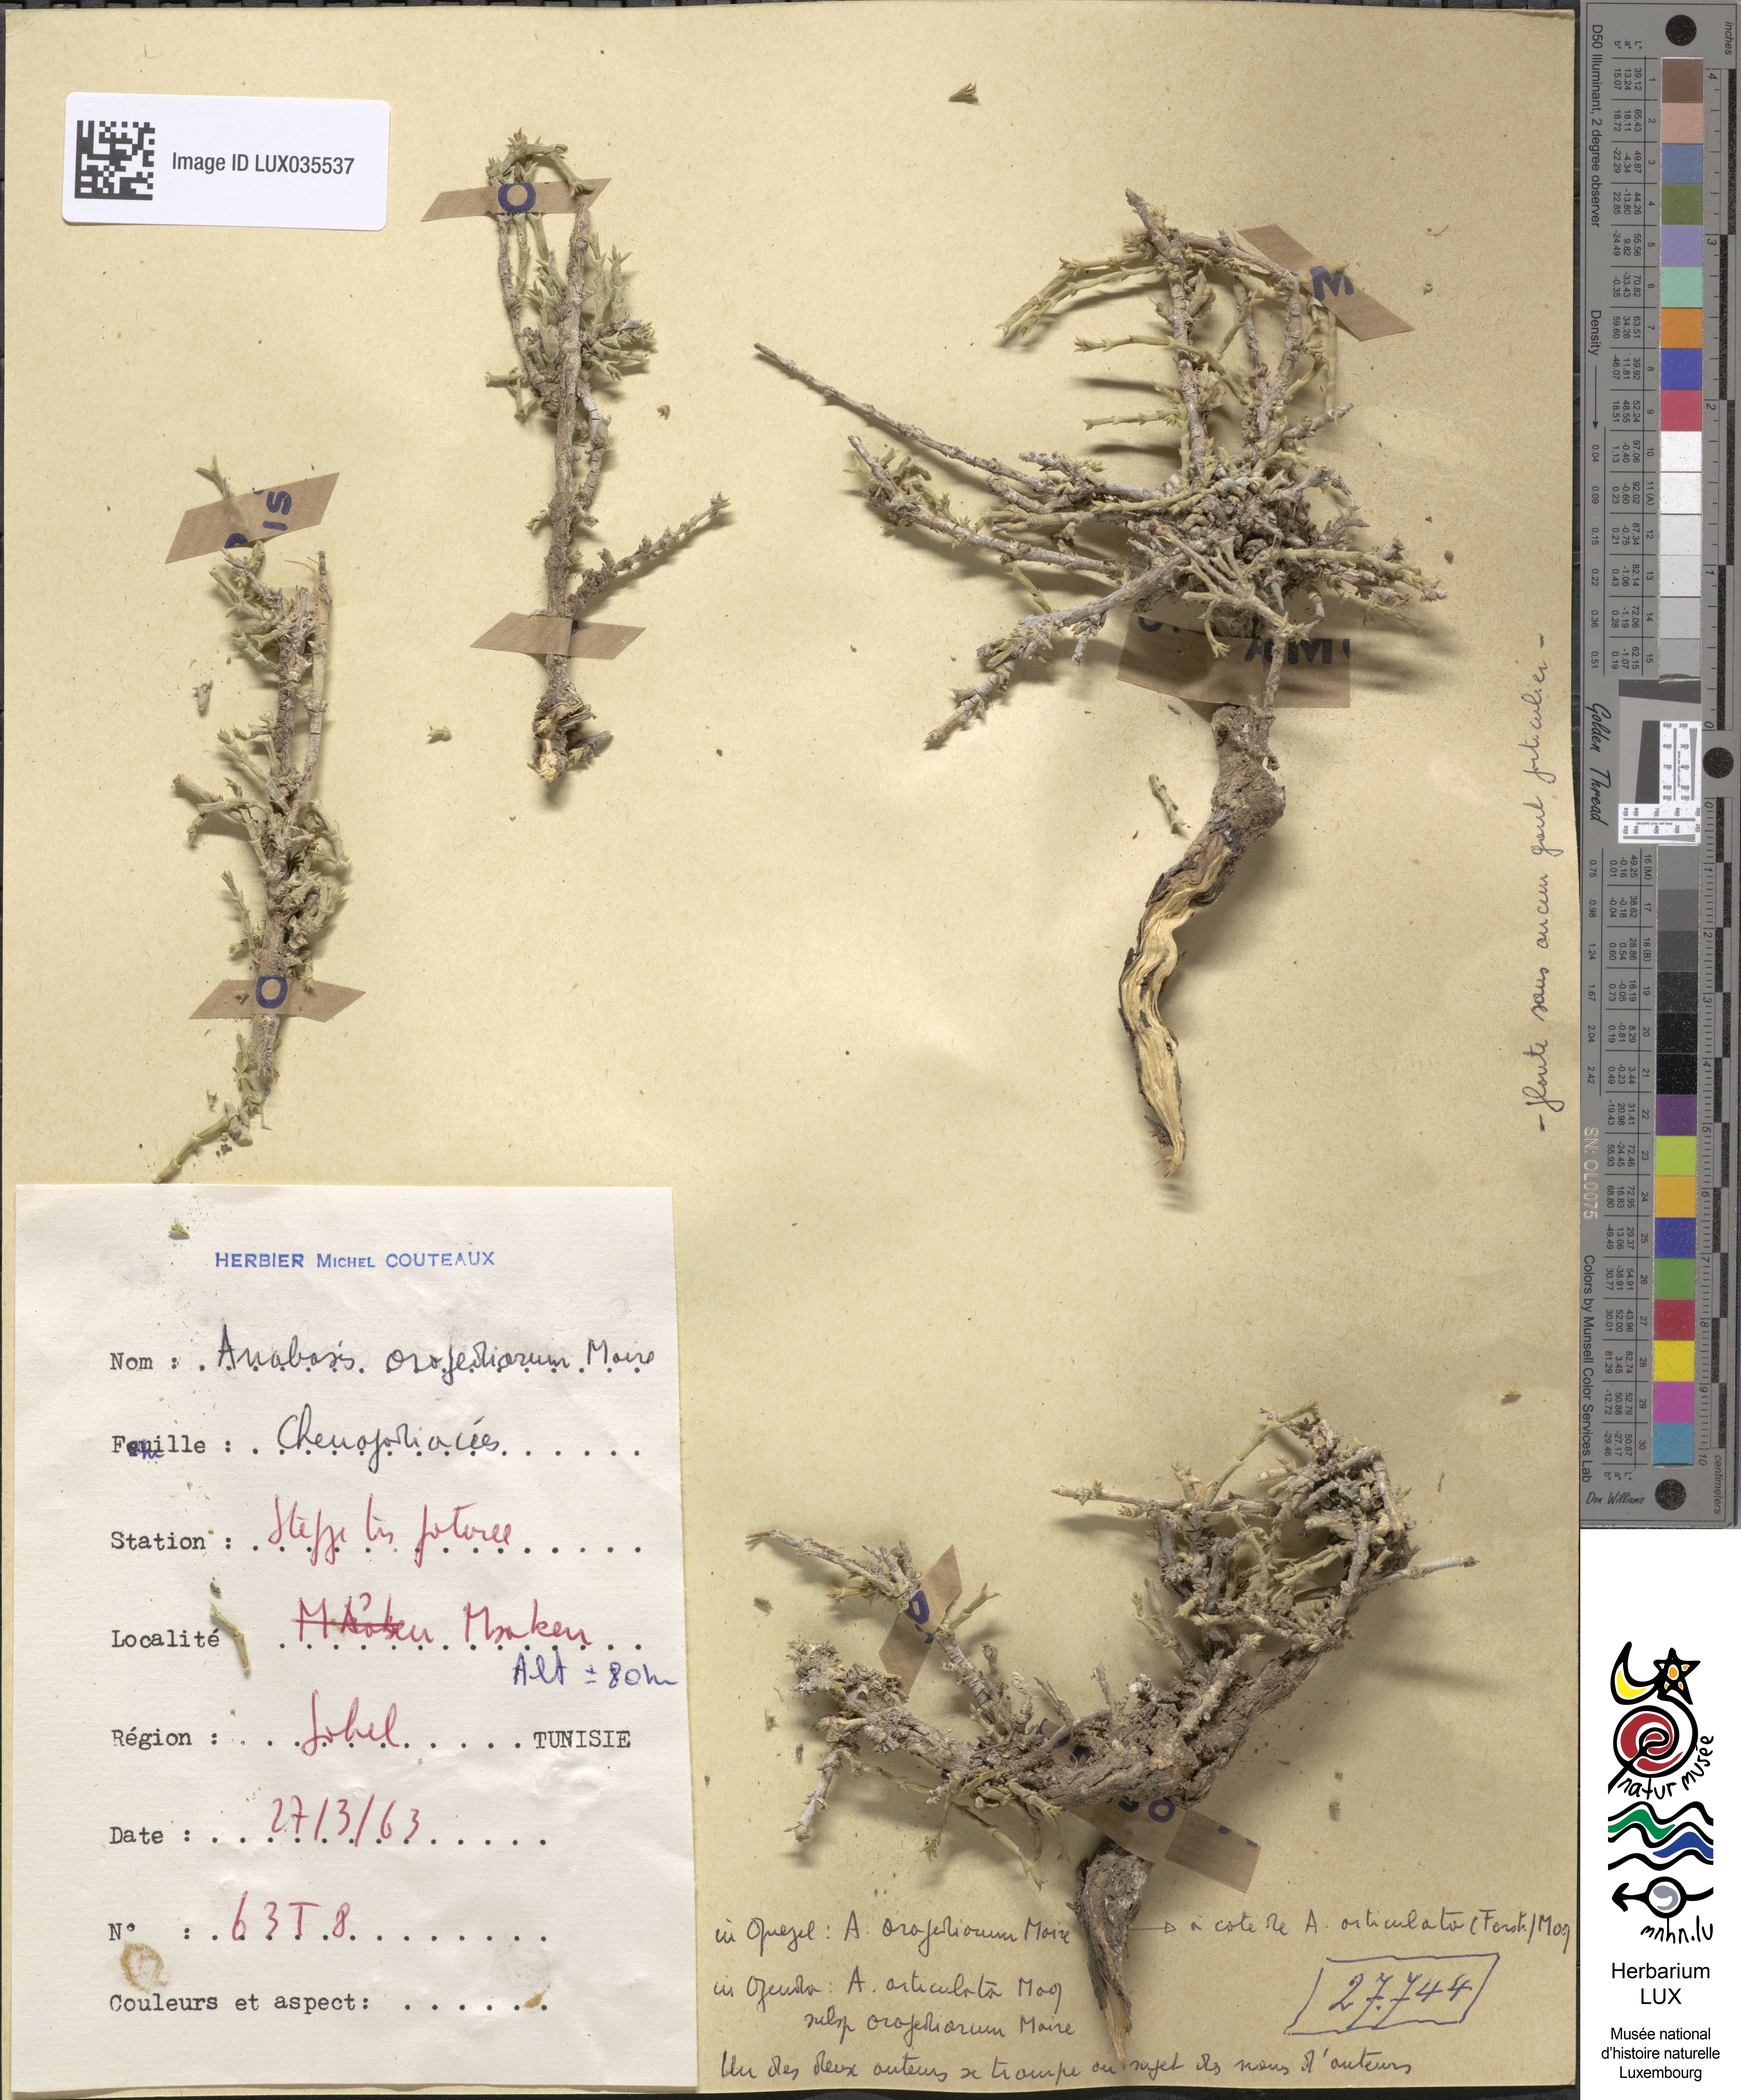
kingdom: Plantae
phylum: Tracheophyta
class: Magnoliopsida
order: Caryophyllales
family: Amaranthaceae
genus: Anabasis
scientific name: Anabasis oropediorum
